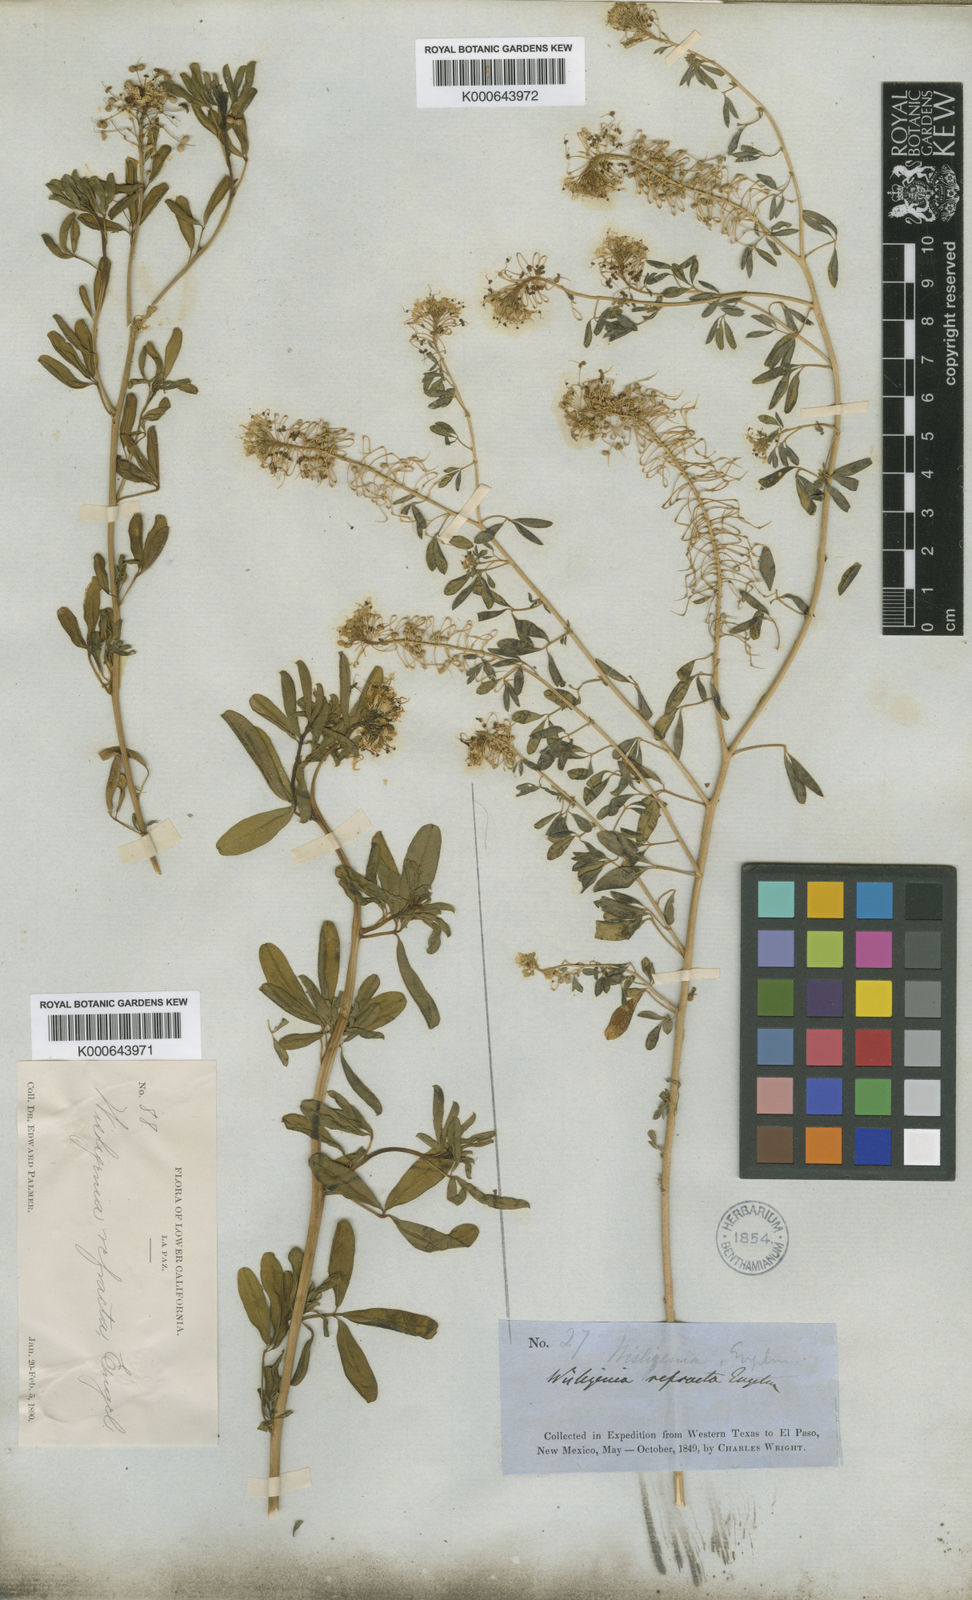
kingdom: Plantae
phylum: Tracheophyta
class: Magnoliopsida
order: Brassicales
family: Cleomaceae
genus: Cleomella
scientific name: Cleomella refracta
